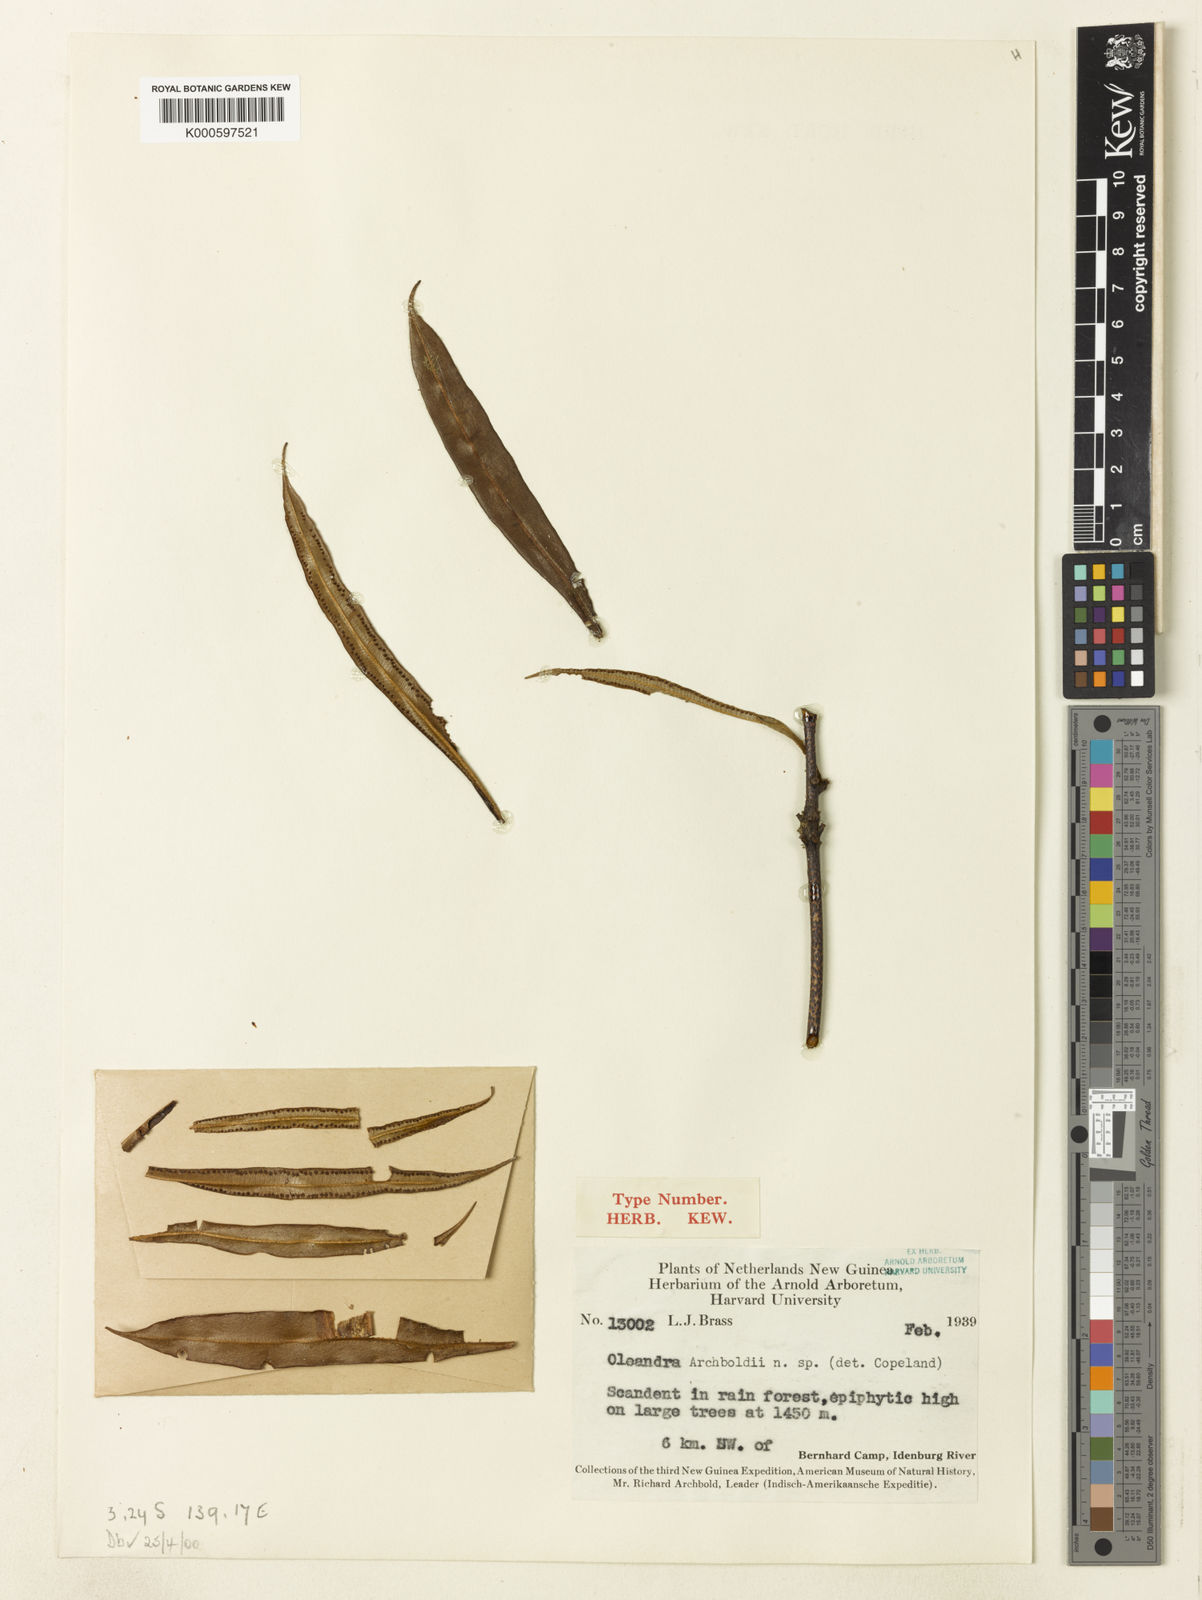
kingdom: Plantae
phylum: Tracheophyta
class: Polypodiopsida
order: Polypodiales
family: Oleandraceae
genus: Oleandra
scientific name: Oleandra neriiformis
